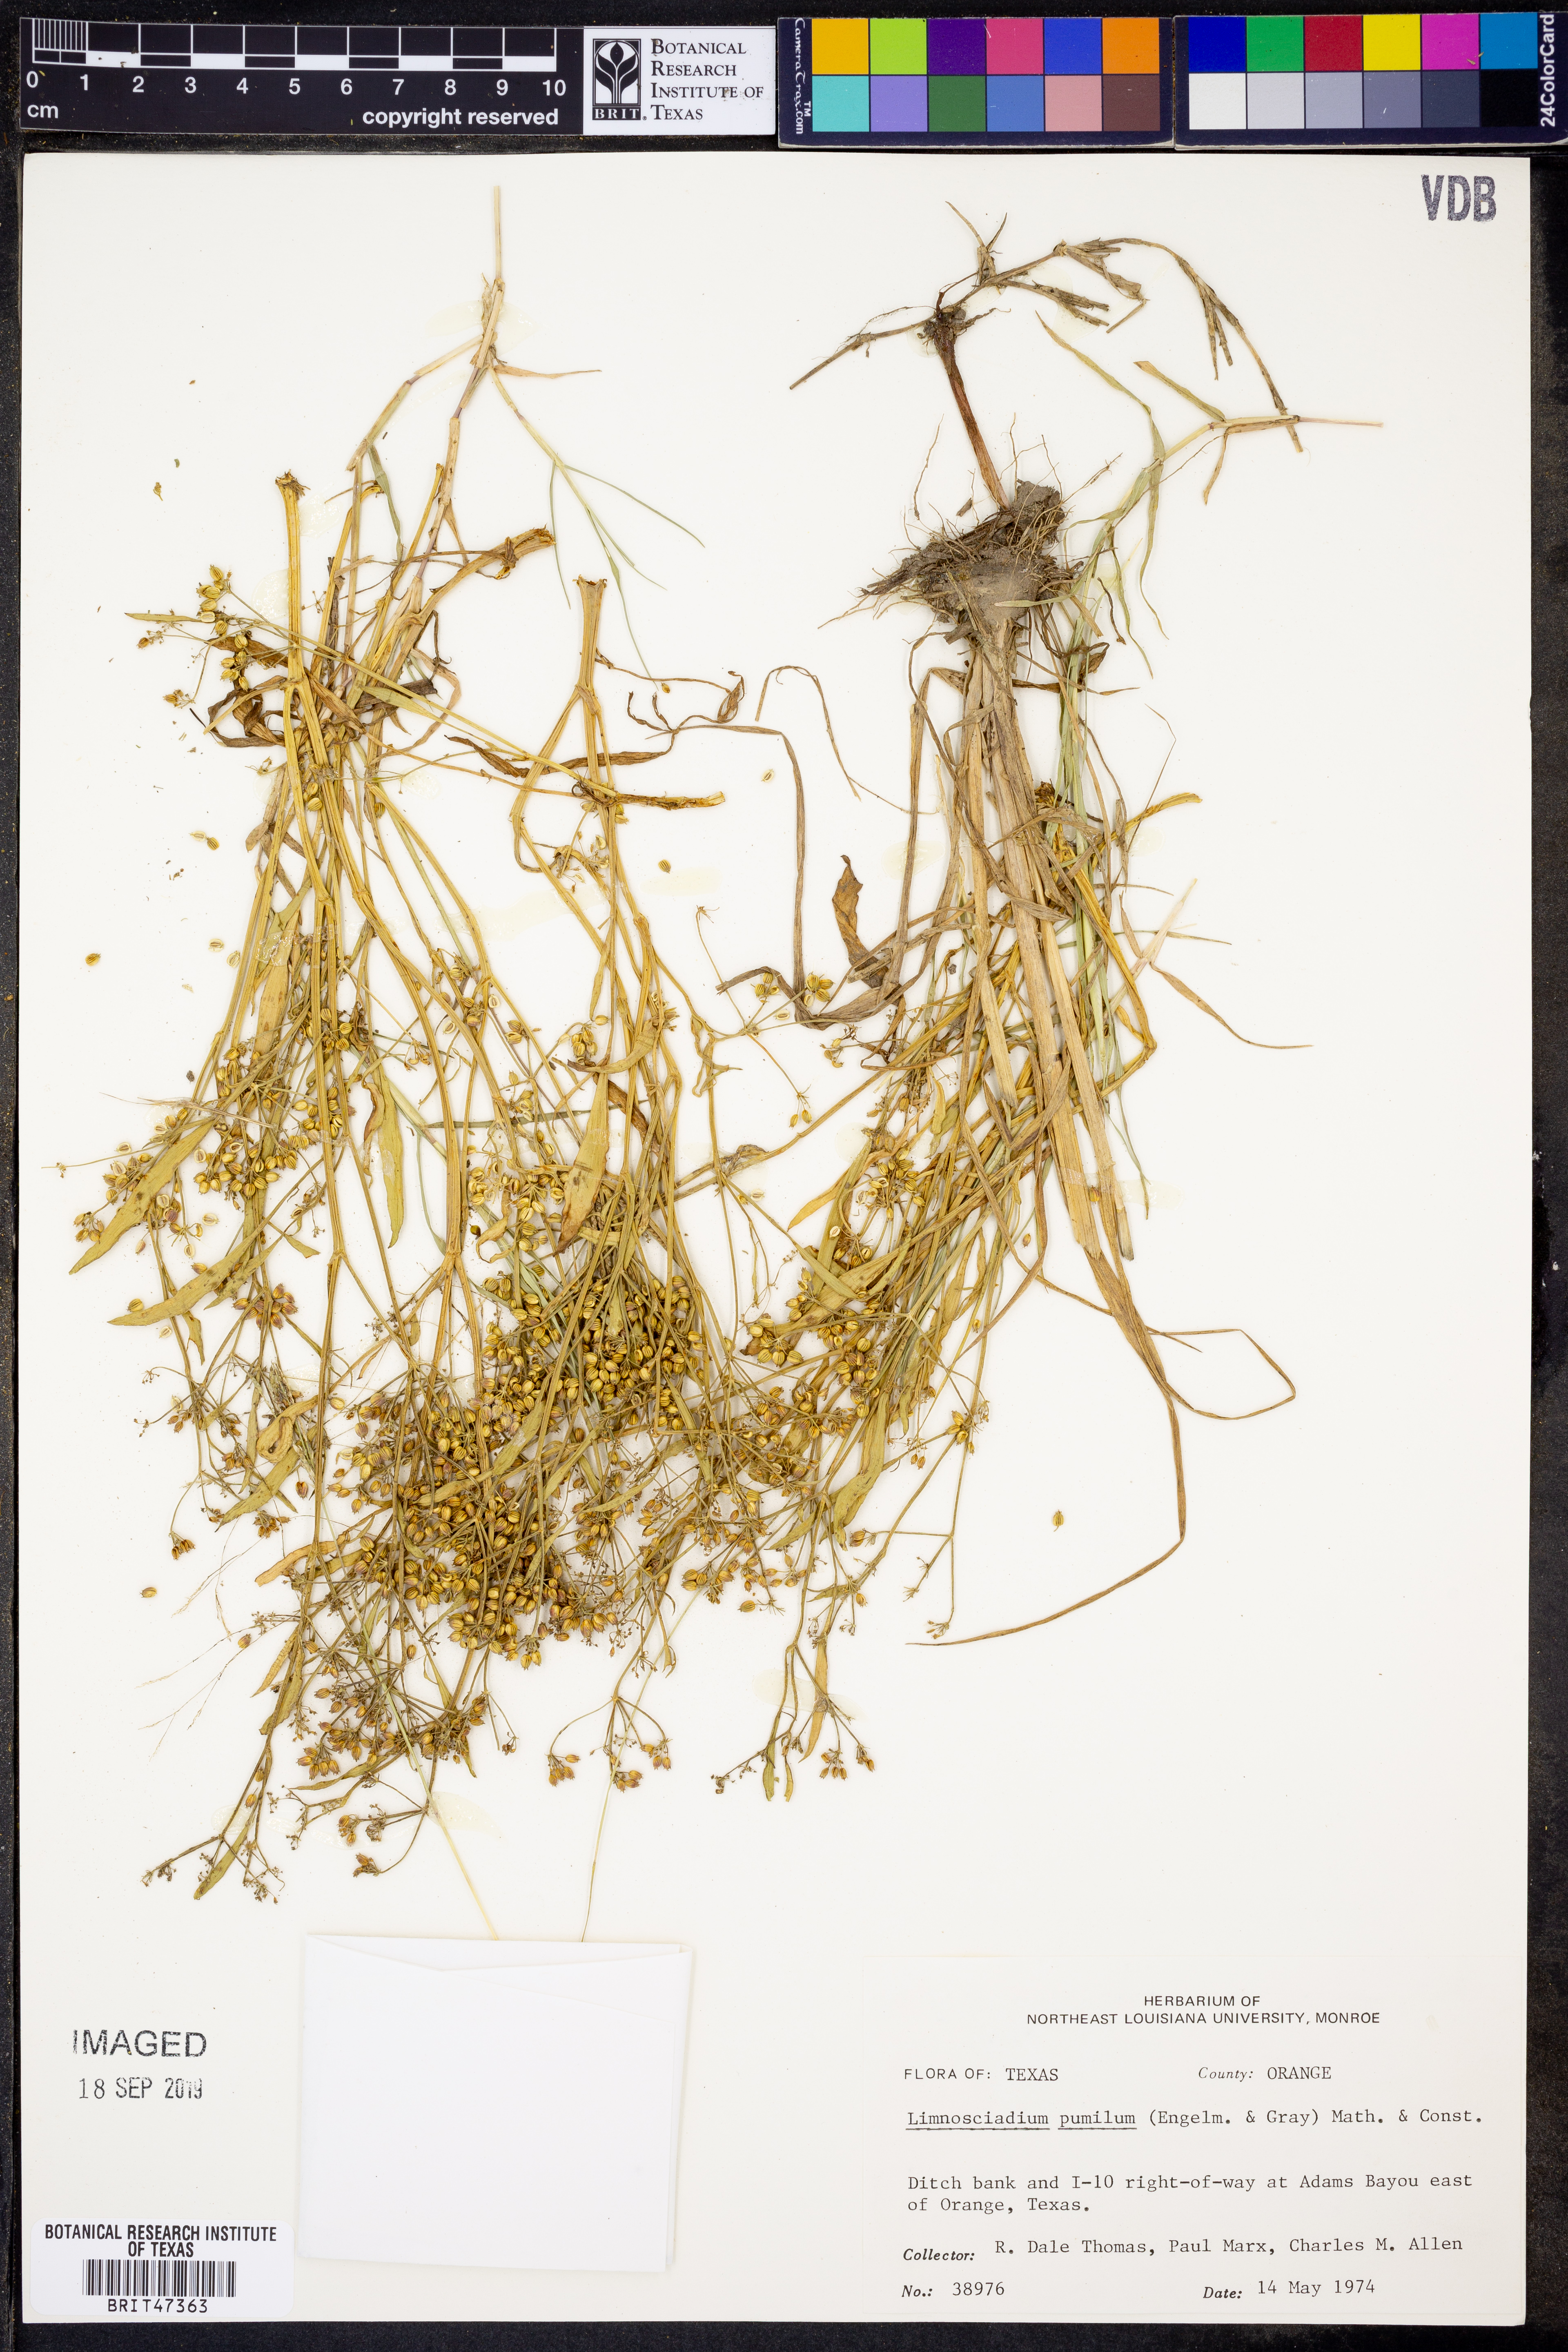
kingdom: Plantae
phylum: Tracheophyta
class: Magnoliopsida
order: Apiales
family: Apiaceae
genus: Limnosciadium
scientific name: Limnosciadium pinnatum
